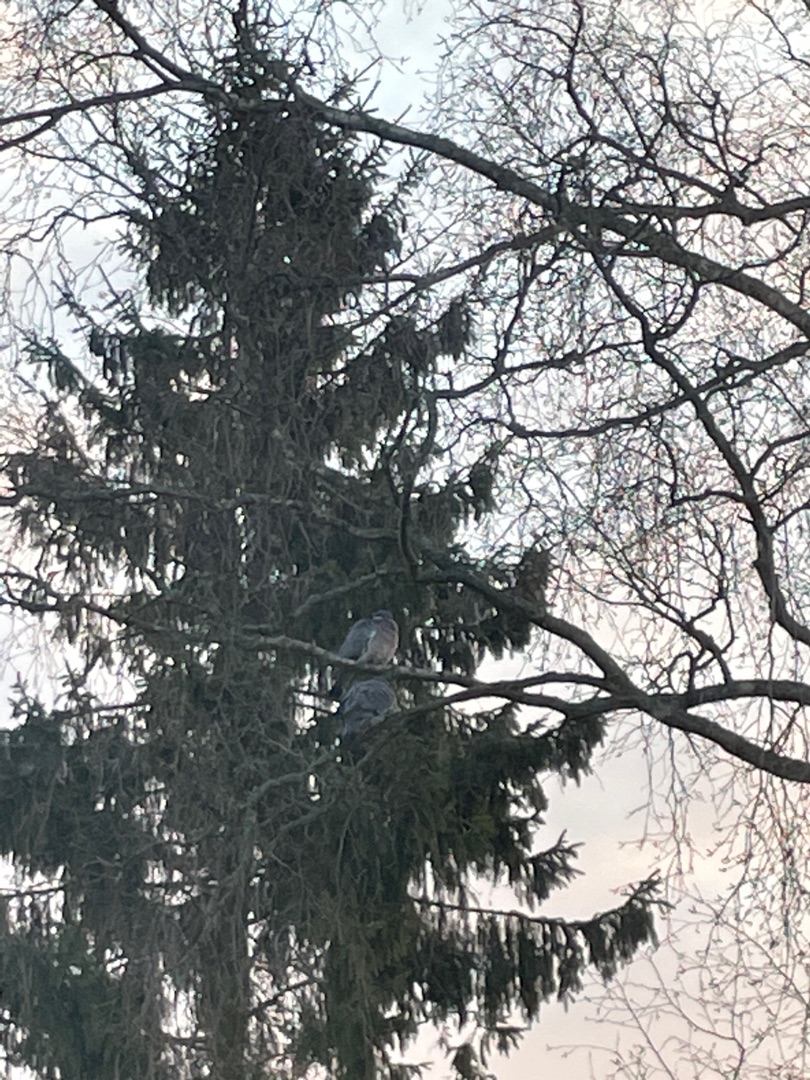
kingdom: Animalia
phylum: Chordata
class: Aves
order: Columbiformes
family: Columbidae
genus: Columba
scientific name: Columba palumbus
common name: Ringdue
